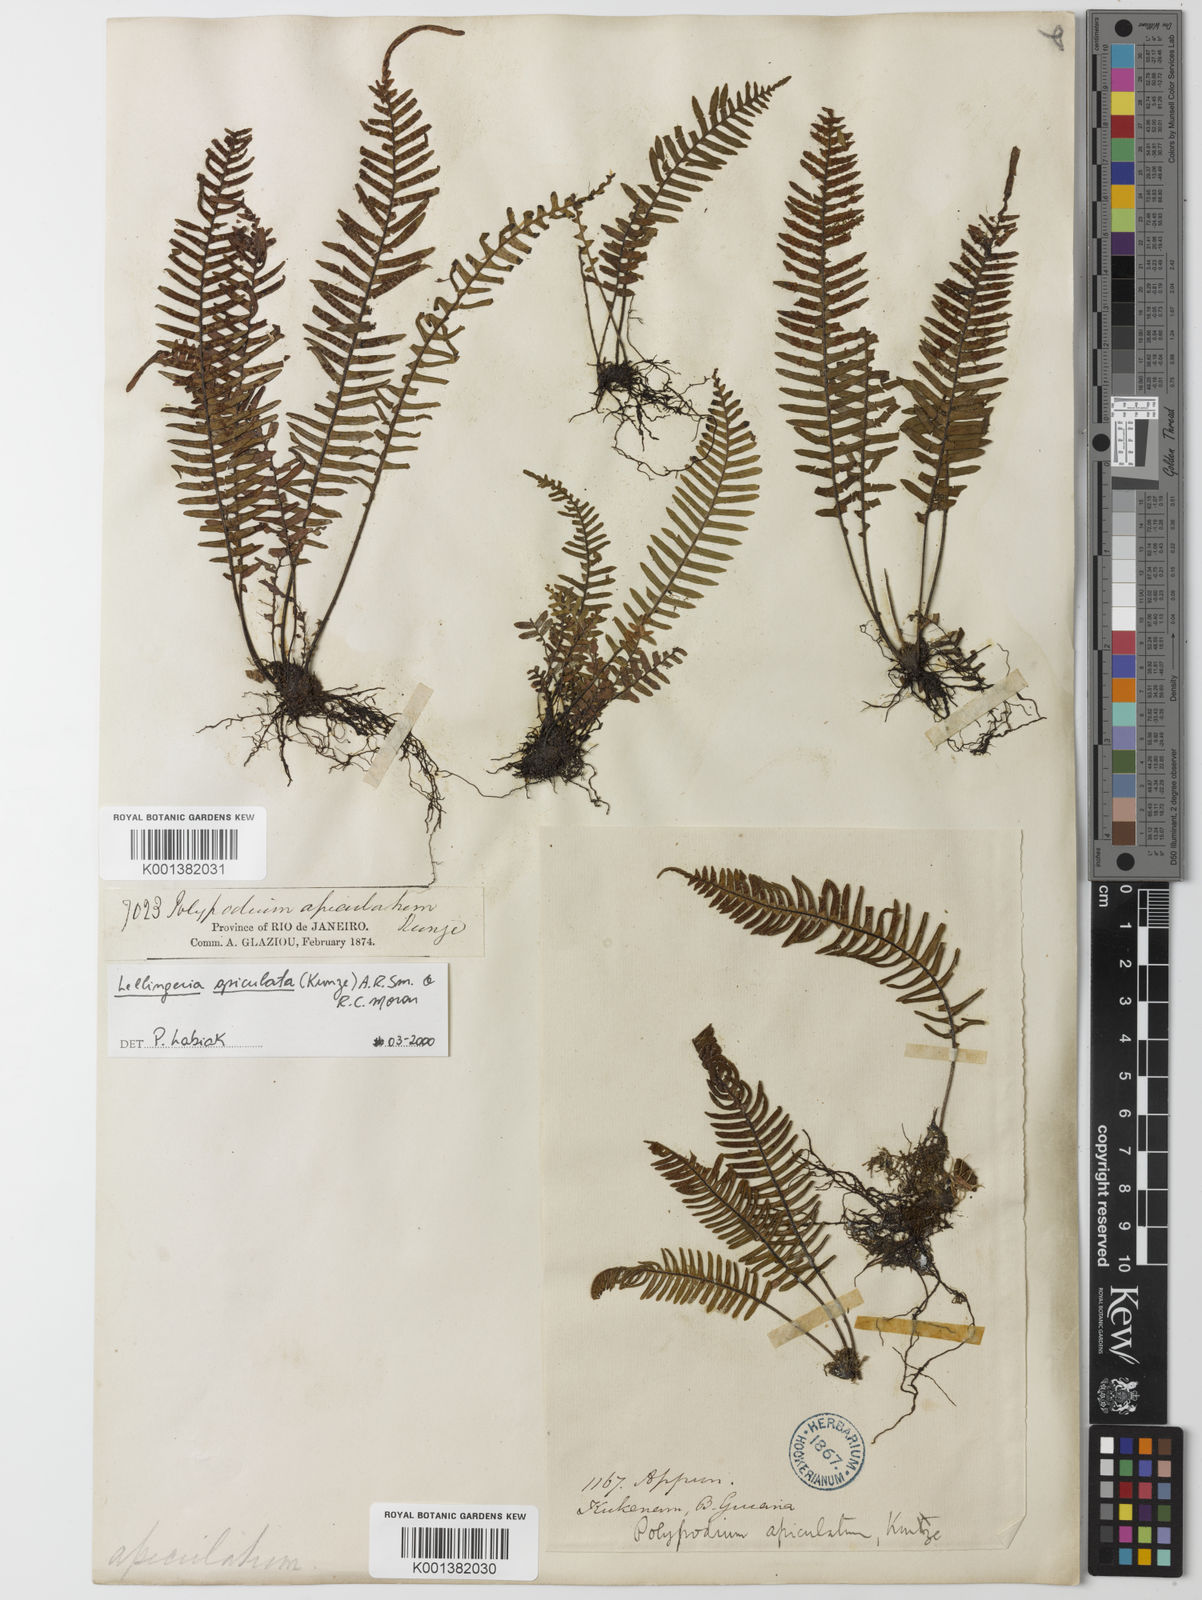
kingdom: Plantae
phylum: Tracheophyta
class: Polypodiopsida
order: Polypodiales
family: Polypodiaceae
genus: Lellingeria
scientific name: Lellingeria apiculata
